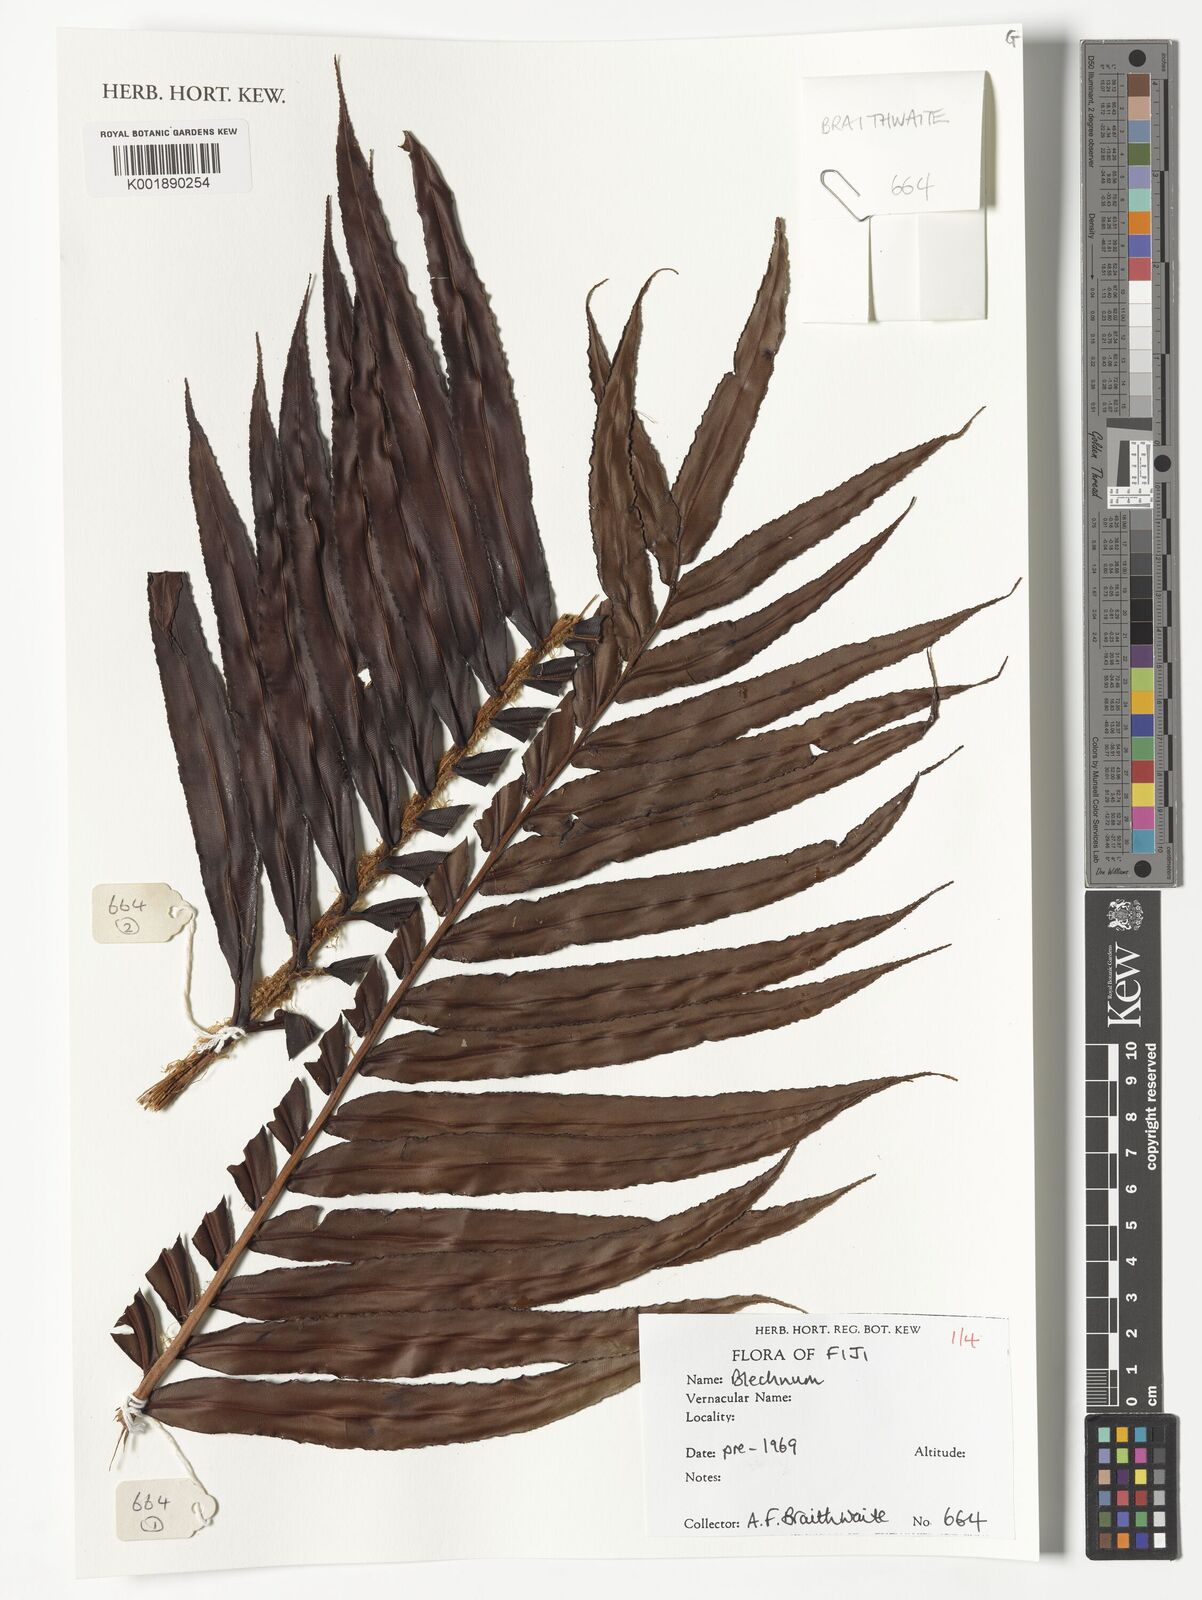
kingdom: Plantae
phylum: Tracheophyta
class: Polypodiopsida
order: Polypodiales
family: Blechnaceae
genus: Blechnum
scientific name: Blechnum
